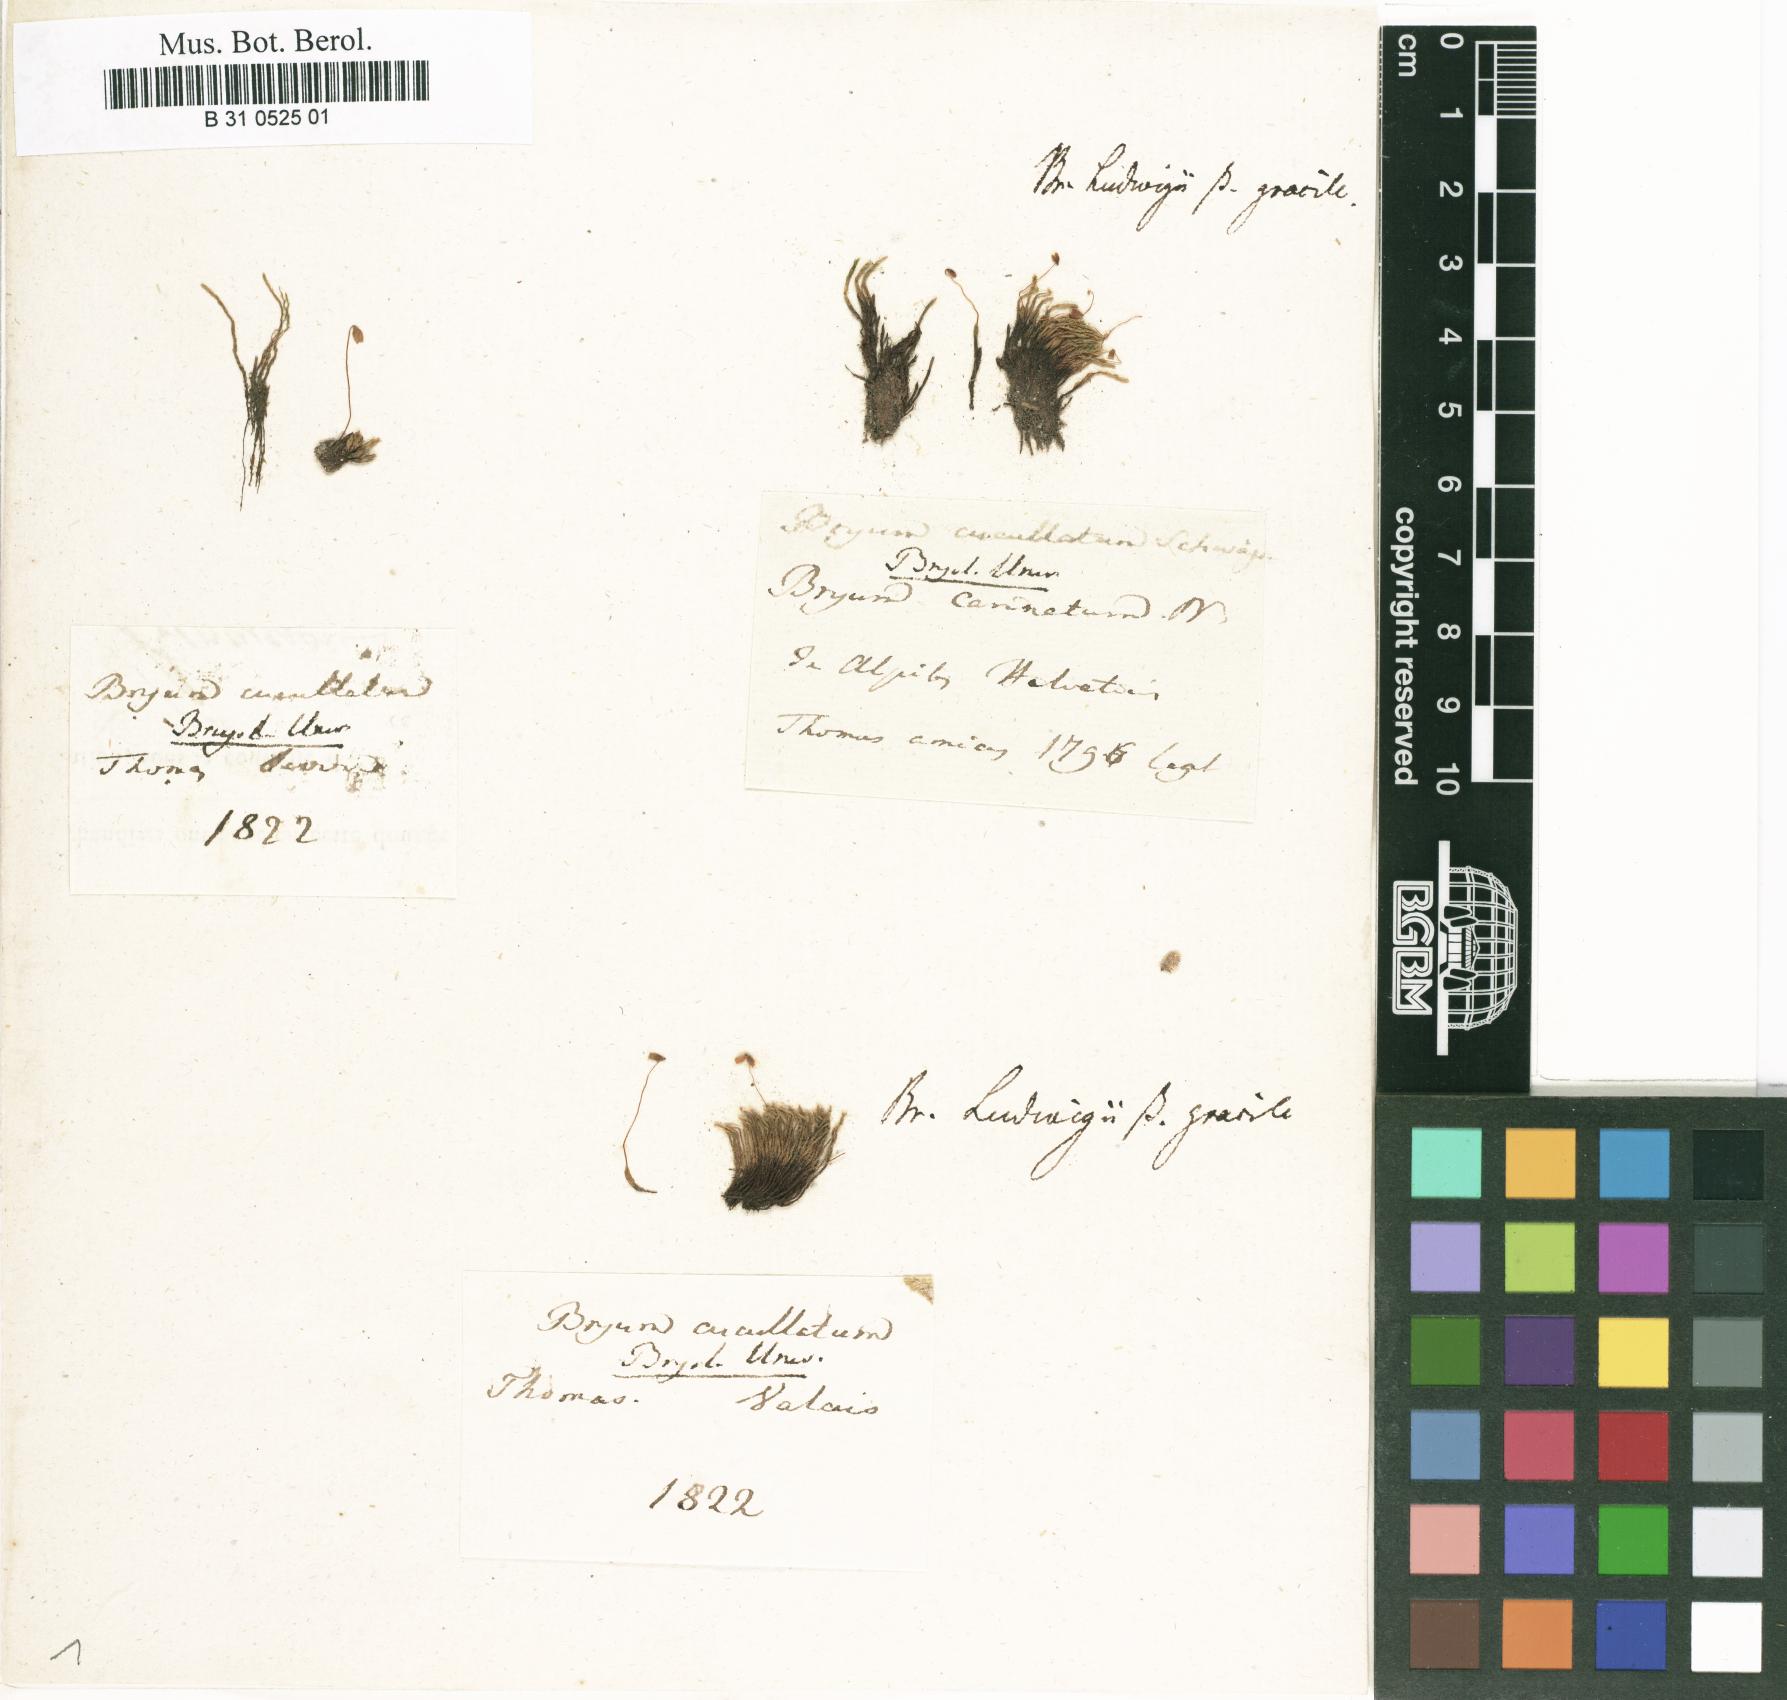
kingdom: Plantae
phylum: Bryophyta
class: Bryopsida
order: Bryales
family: Mniaceae
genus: Pohlia
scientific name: Pohlia obtusifolia
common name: Blunt nodding moss
